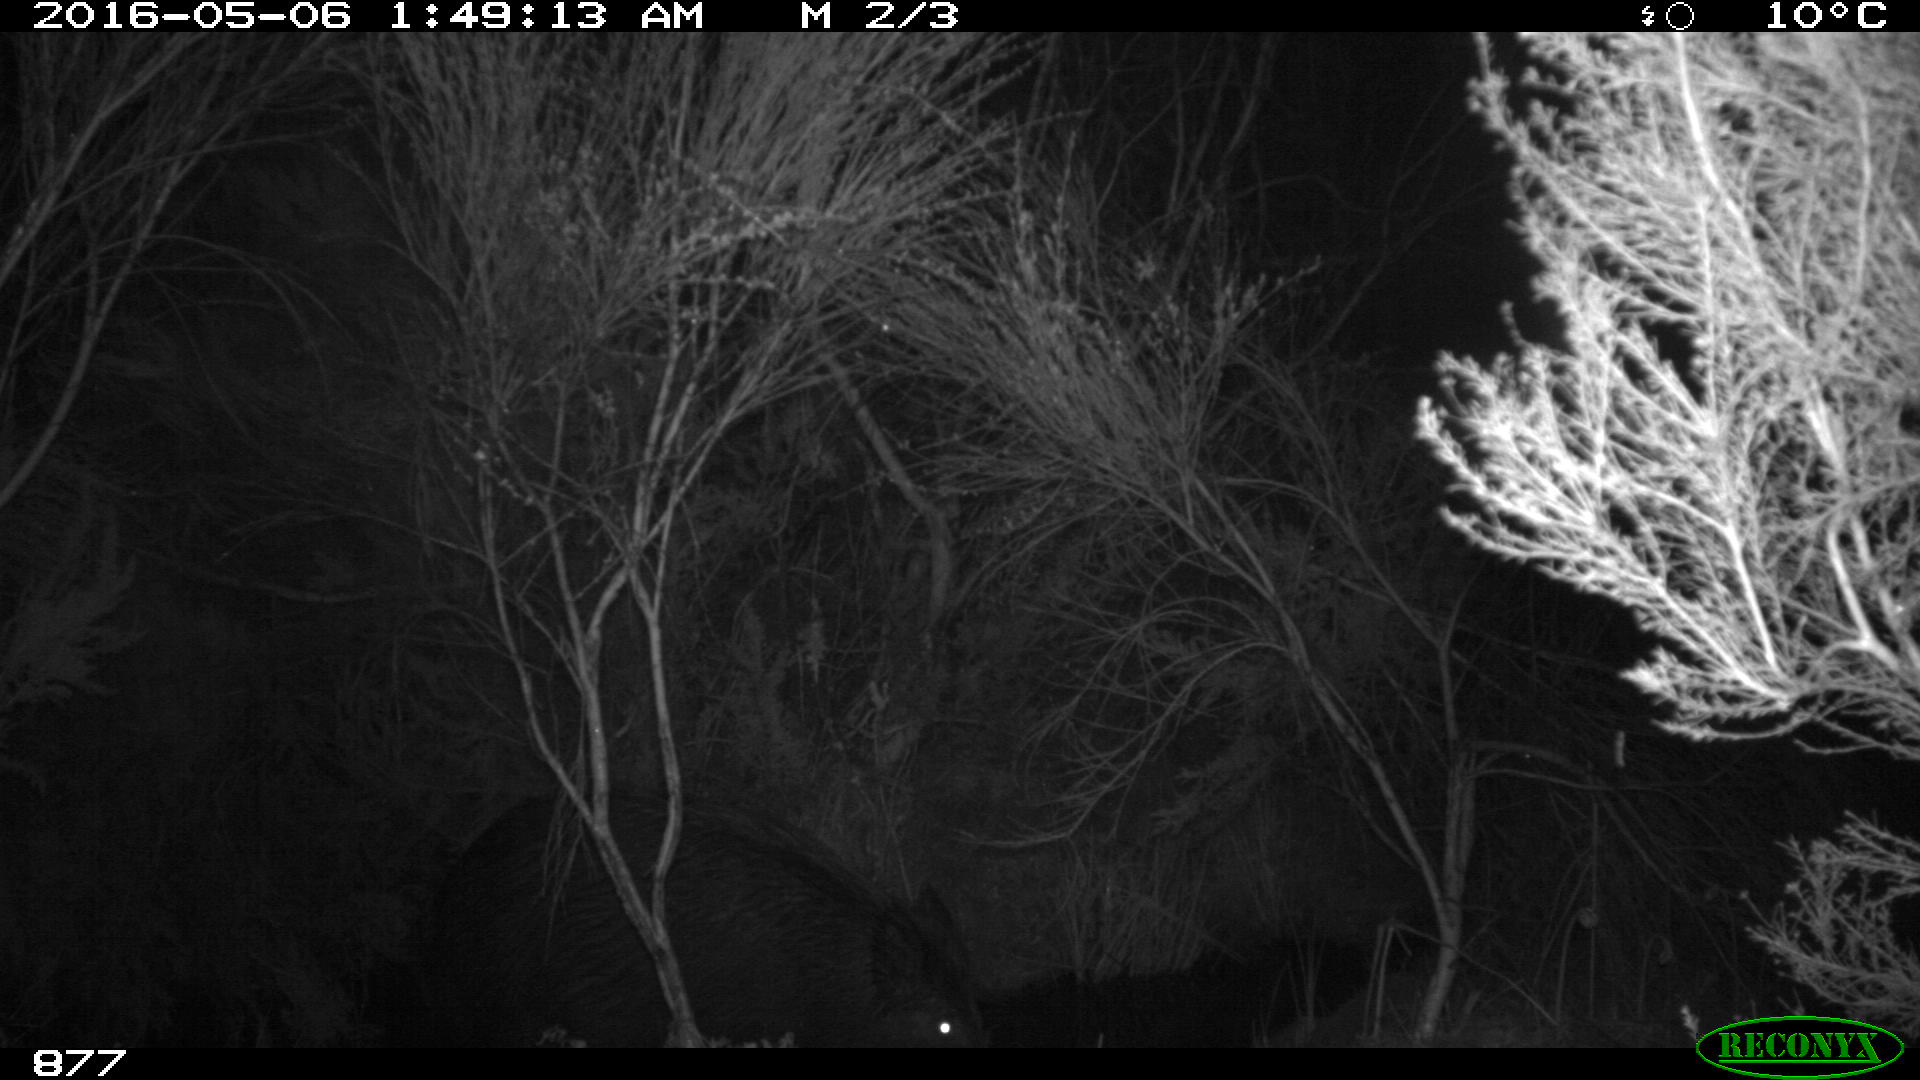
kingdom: Animalia
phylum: Chordata
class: Mammalia
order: Artiodactyla
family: Suidae
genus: Sus
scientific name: Sus scrofa
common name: Wild boar
